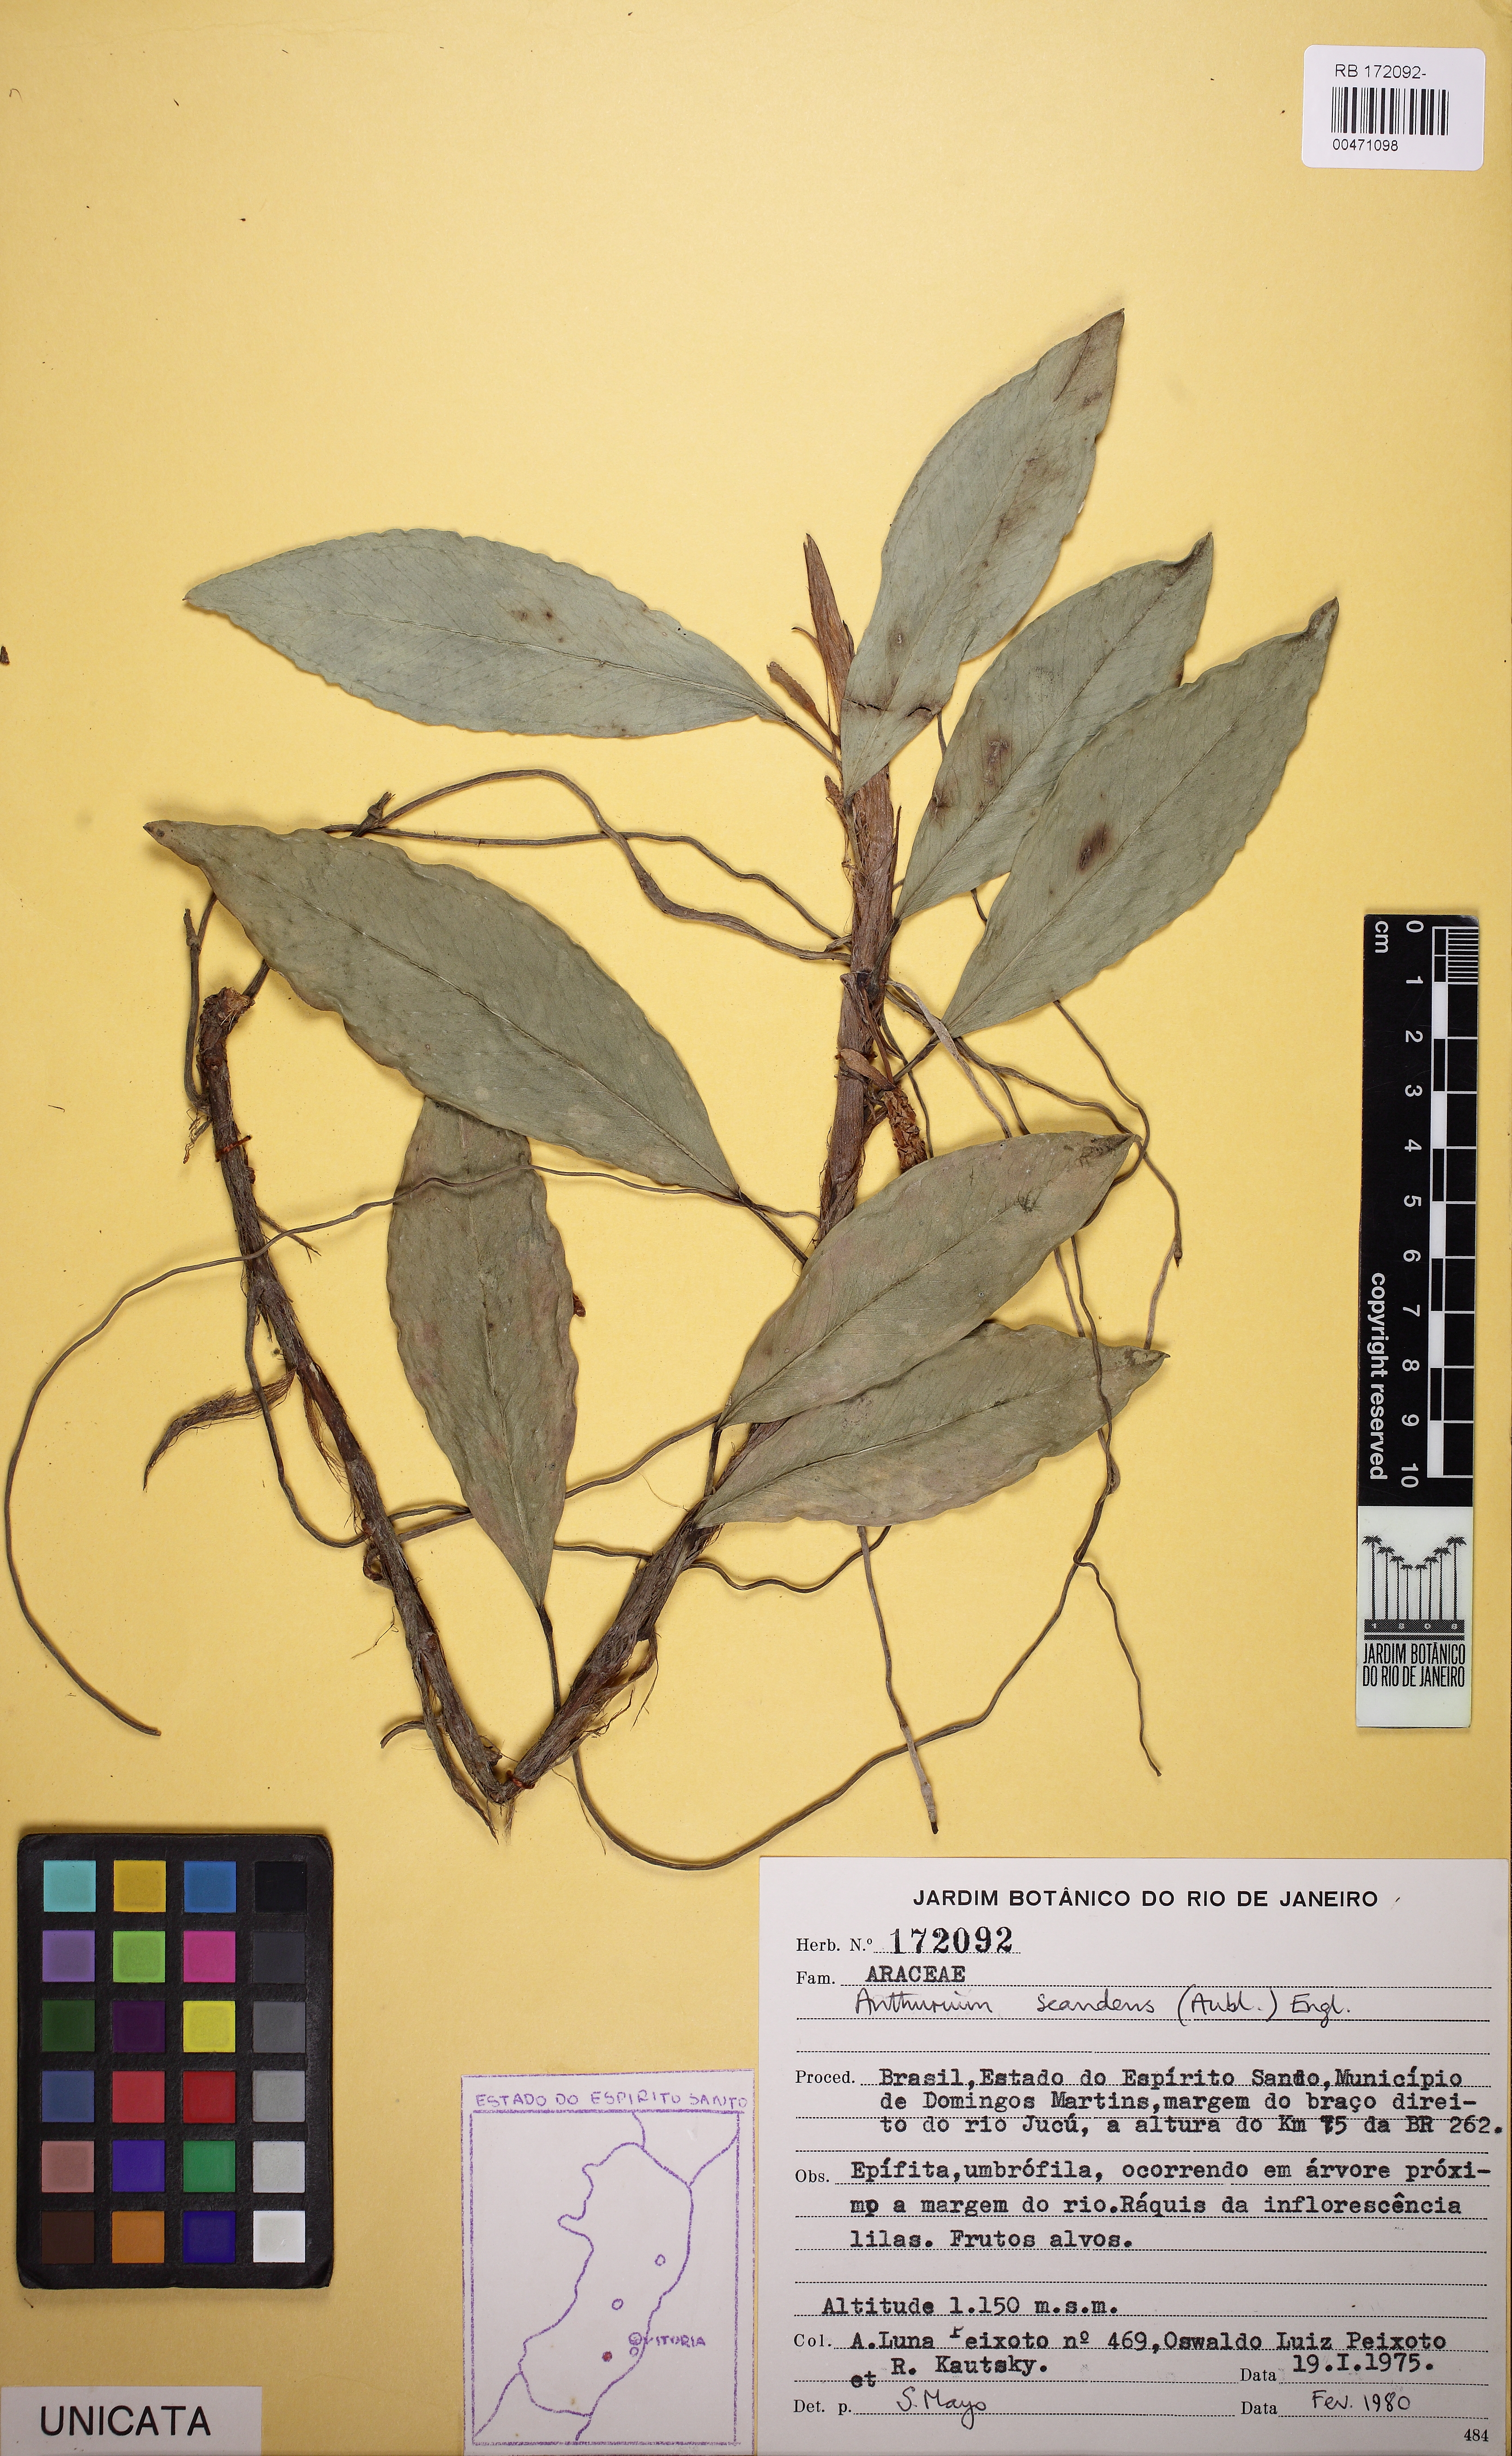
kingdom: Plantae
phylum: Tracheophyta
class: Liliopsida
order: Alismatales
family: Araceae
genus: Anthurium
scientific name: Anthurium scandens
